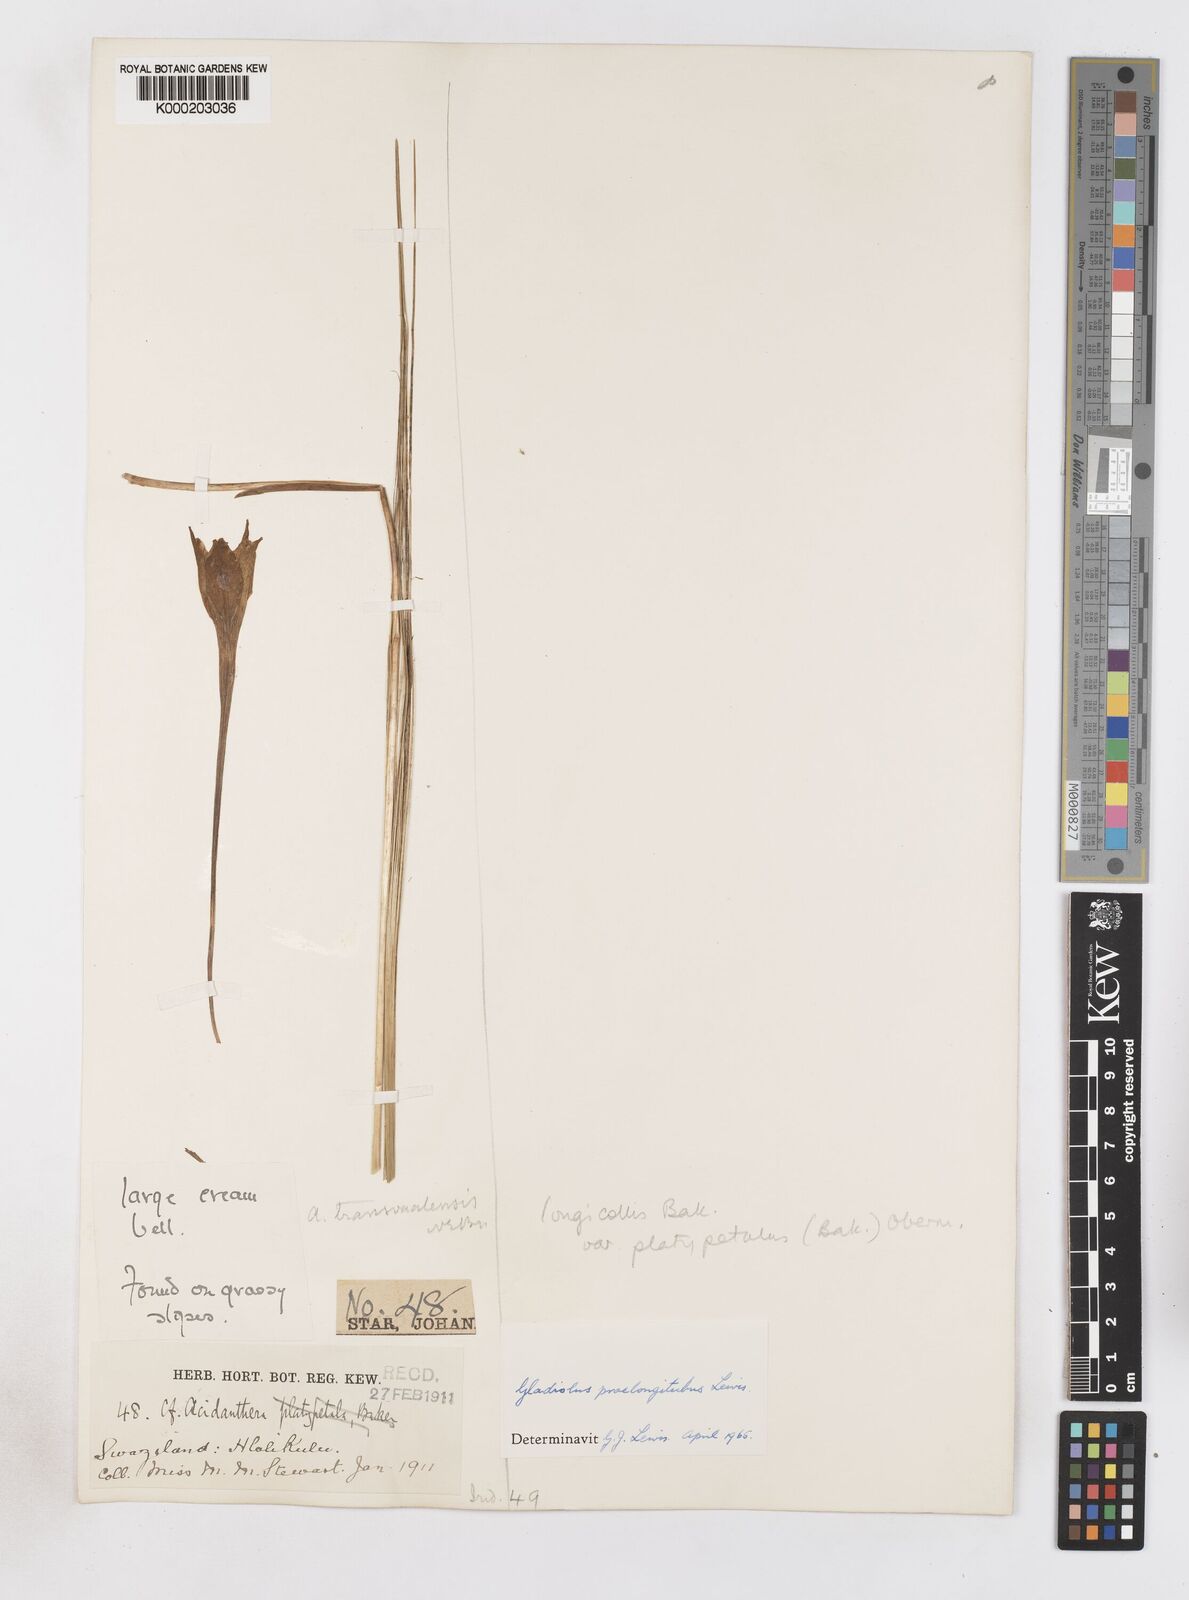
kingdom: Plantae
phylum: Tracheophyta
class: Liliopsida
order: Asparagales
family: Iridaceae
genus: Gladiolus
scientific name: Gladiolus longicollis
